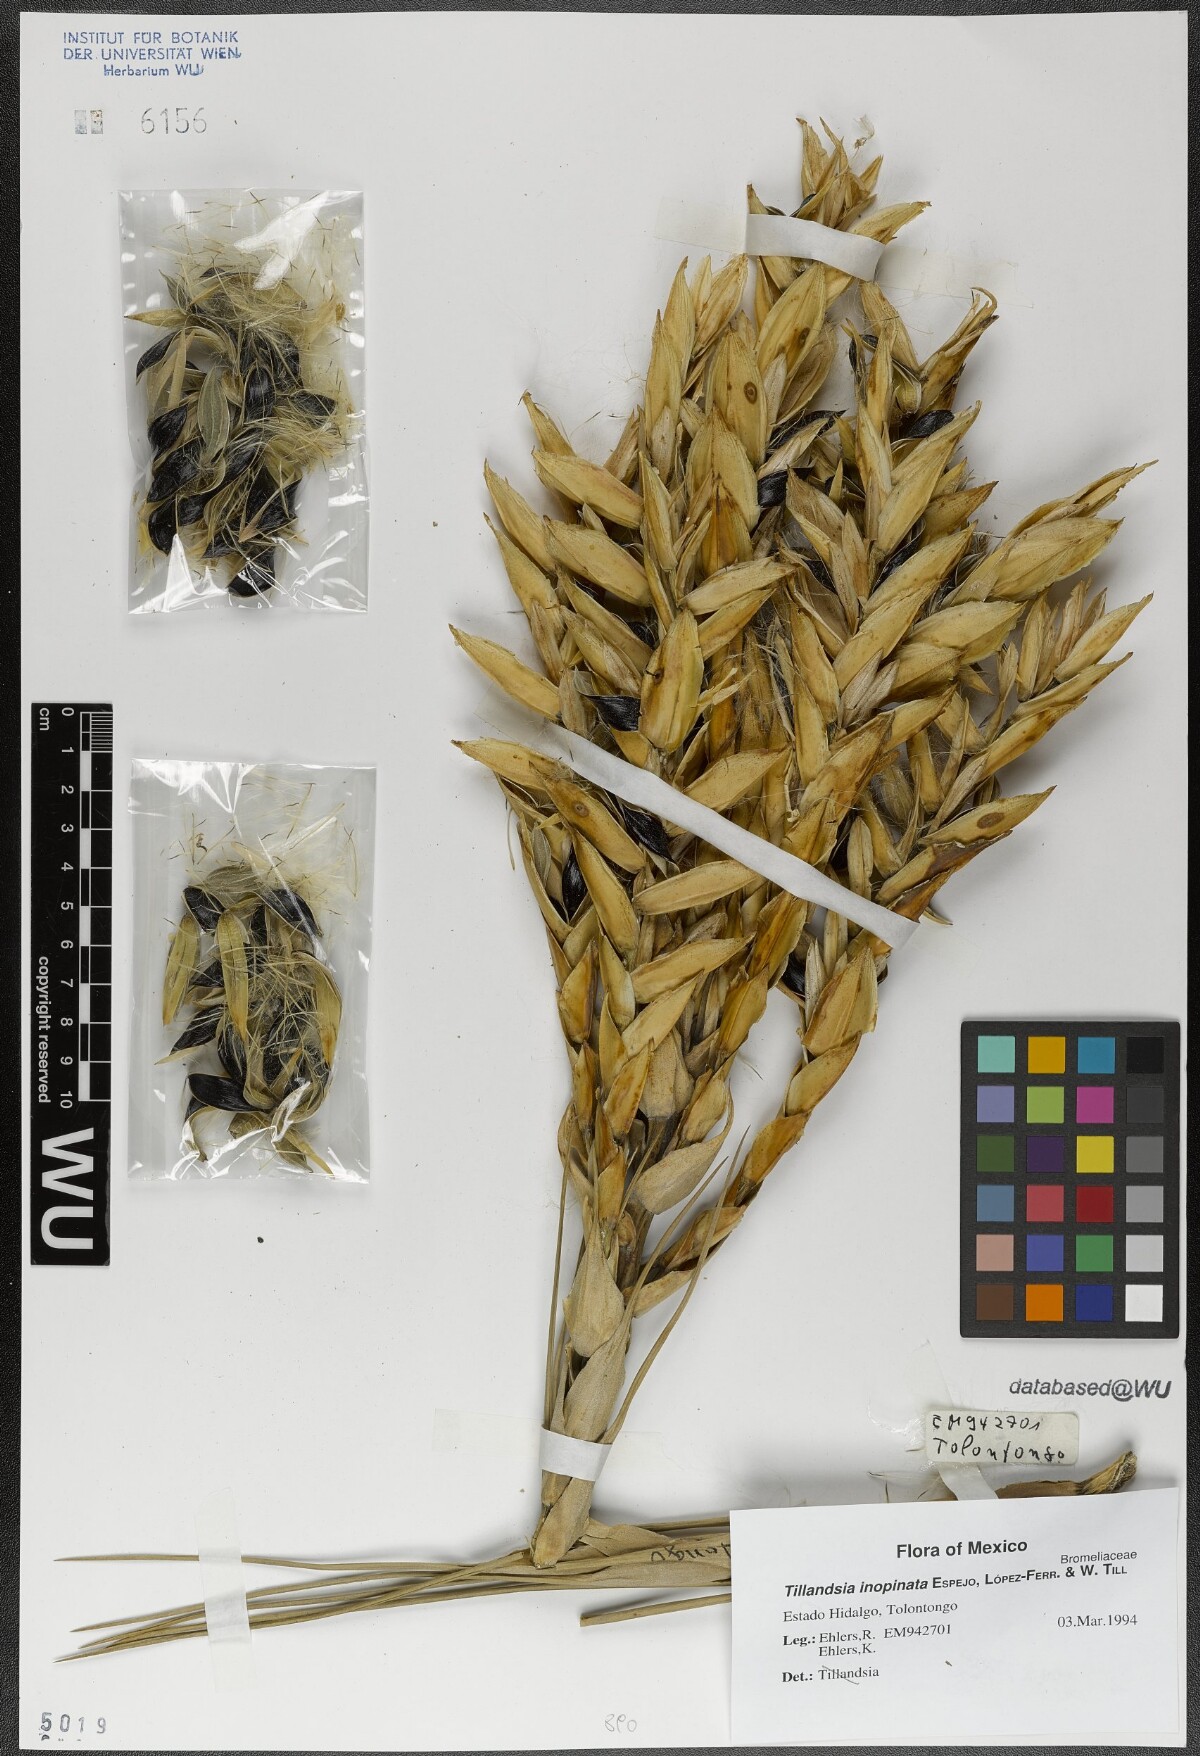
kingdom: Plantae
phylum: Tracheophyta
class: Liliopsida
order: Poales
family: Bromeliaceae
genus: Tillandsia
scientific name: Tillandsia inopinata
